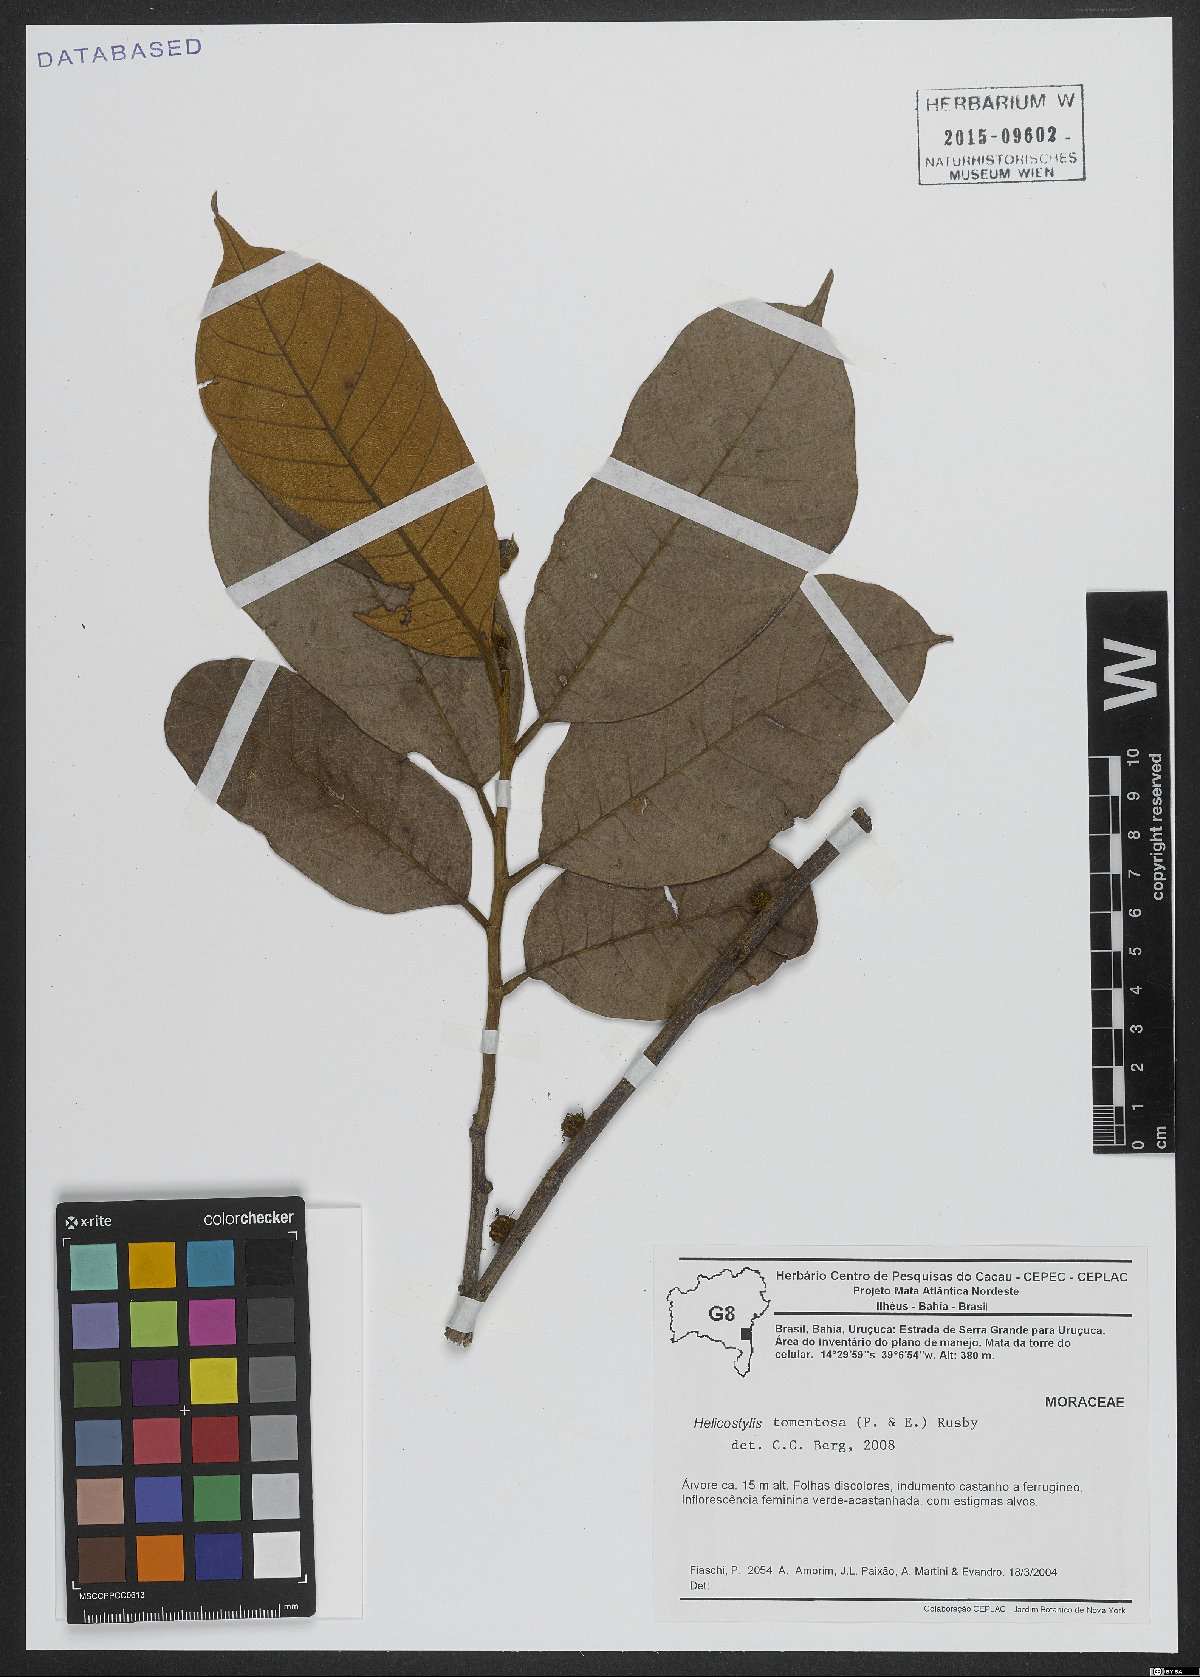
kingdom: Plantae
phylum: Tracheophyta
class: Magnoliopsida
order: Rosales
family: Moraceae
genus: Helicostylis
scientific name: Helicostylis tomentosa
